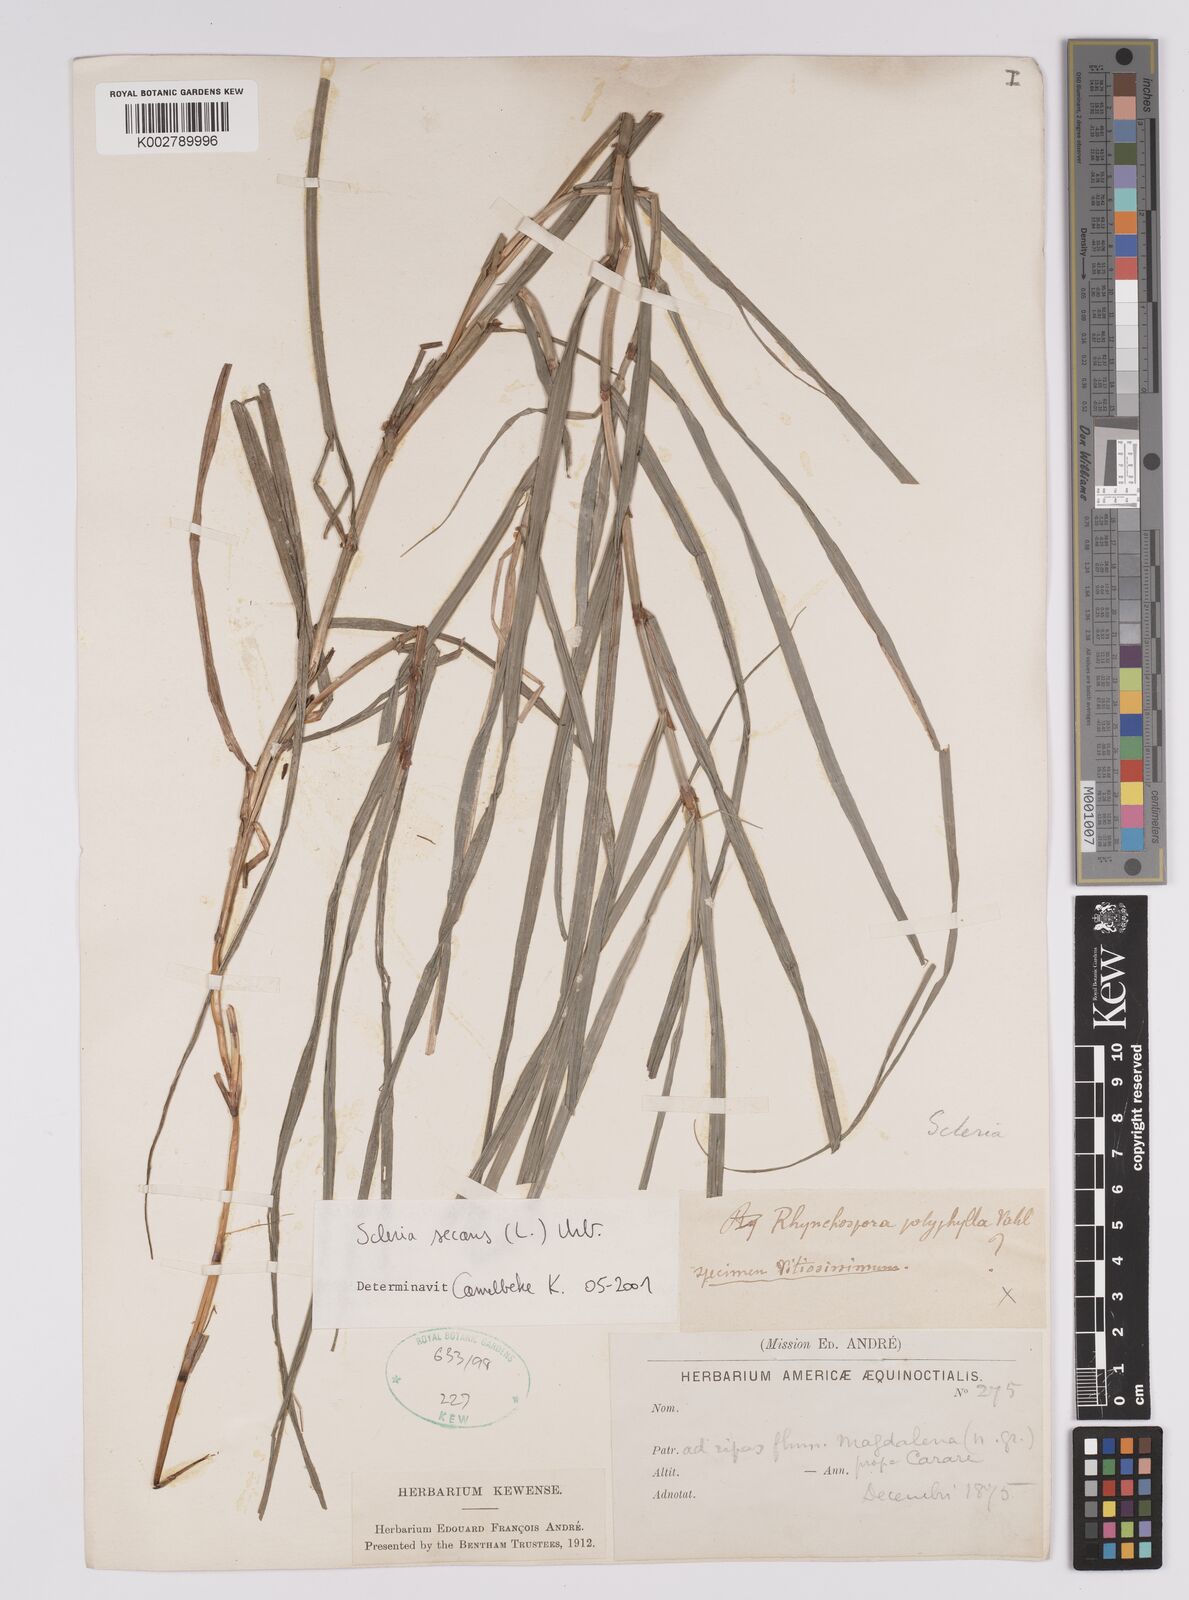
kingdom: Plantae
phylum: Tracheophyta
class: Liliopsida
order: Poales
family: Cyperaceae
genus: Scleria
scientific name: Scleria secans
